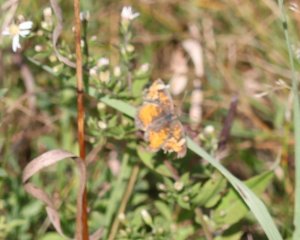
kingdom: Animalia
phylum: Arthropoda
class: Insecta
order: Lepidoptera
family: Nymphalidae
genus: Phyciodes
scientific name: Phyciodes tharos
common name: Northern Crescent
